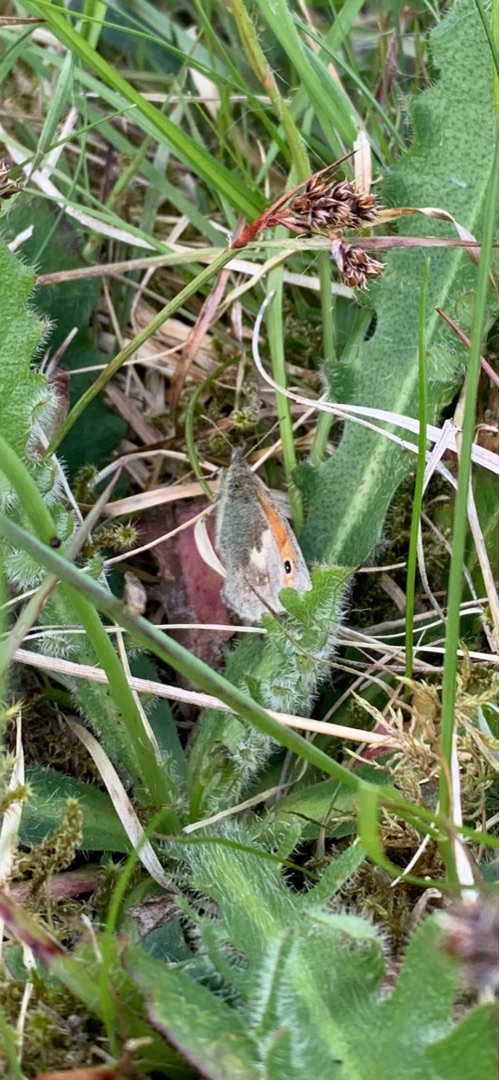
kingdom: Animalia
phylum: Arthropoda
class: Insecta
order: Lepidoptera
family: Nymphalidae
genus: Coenonympha
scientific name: Coenonympha pamphilus
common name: Okkergul randøje
